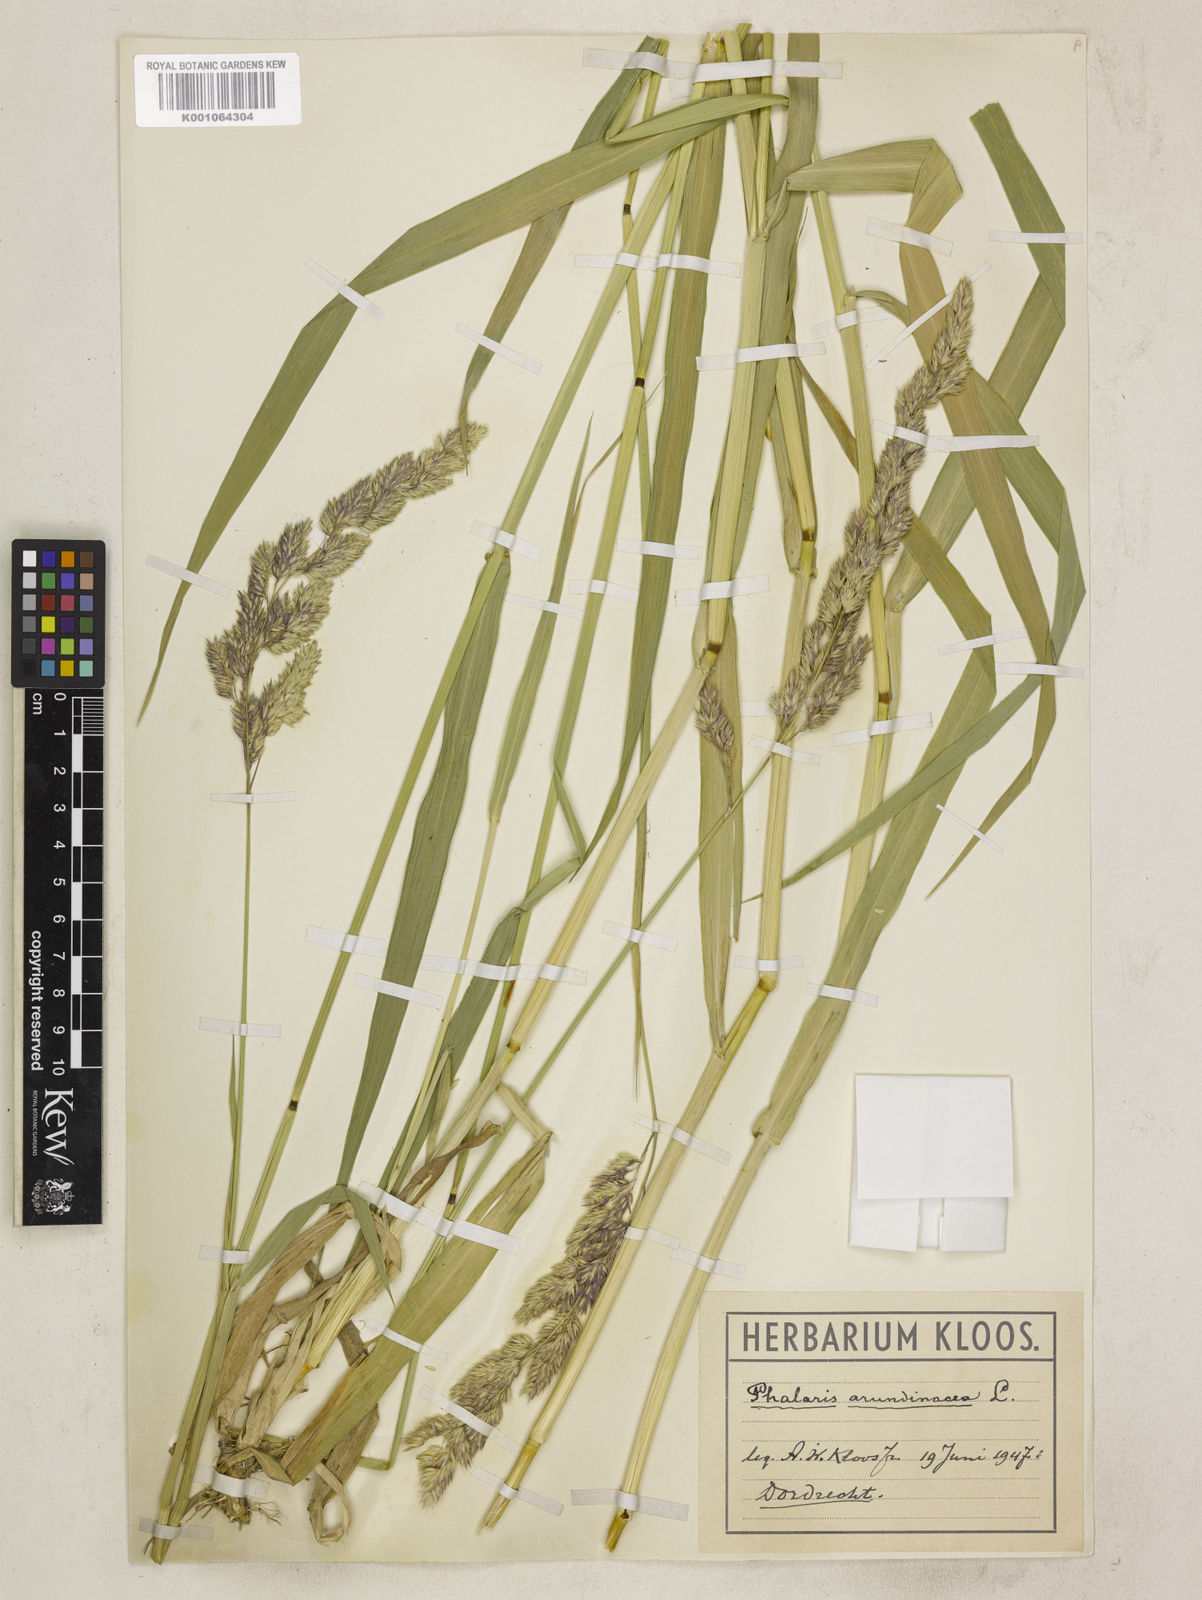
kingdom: Plantae
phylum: Tracheophyta
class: Liliopsida
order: Poales
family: Poaceae
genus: Phalaris
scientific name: Phalaris arundinacea
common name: Reed canary-grass
